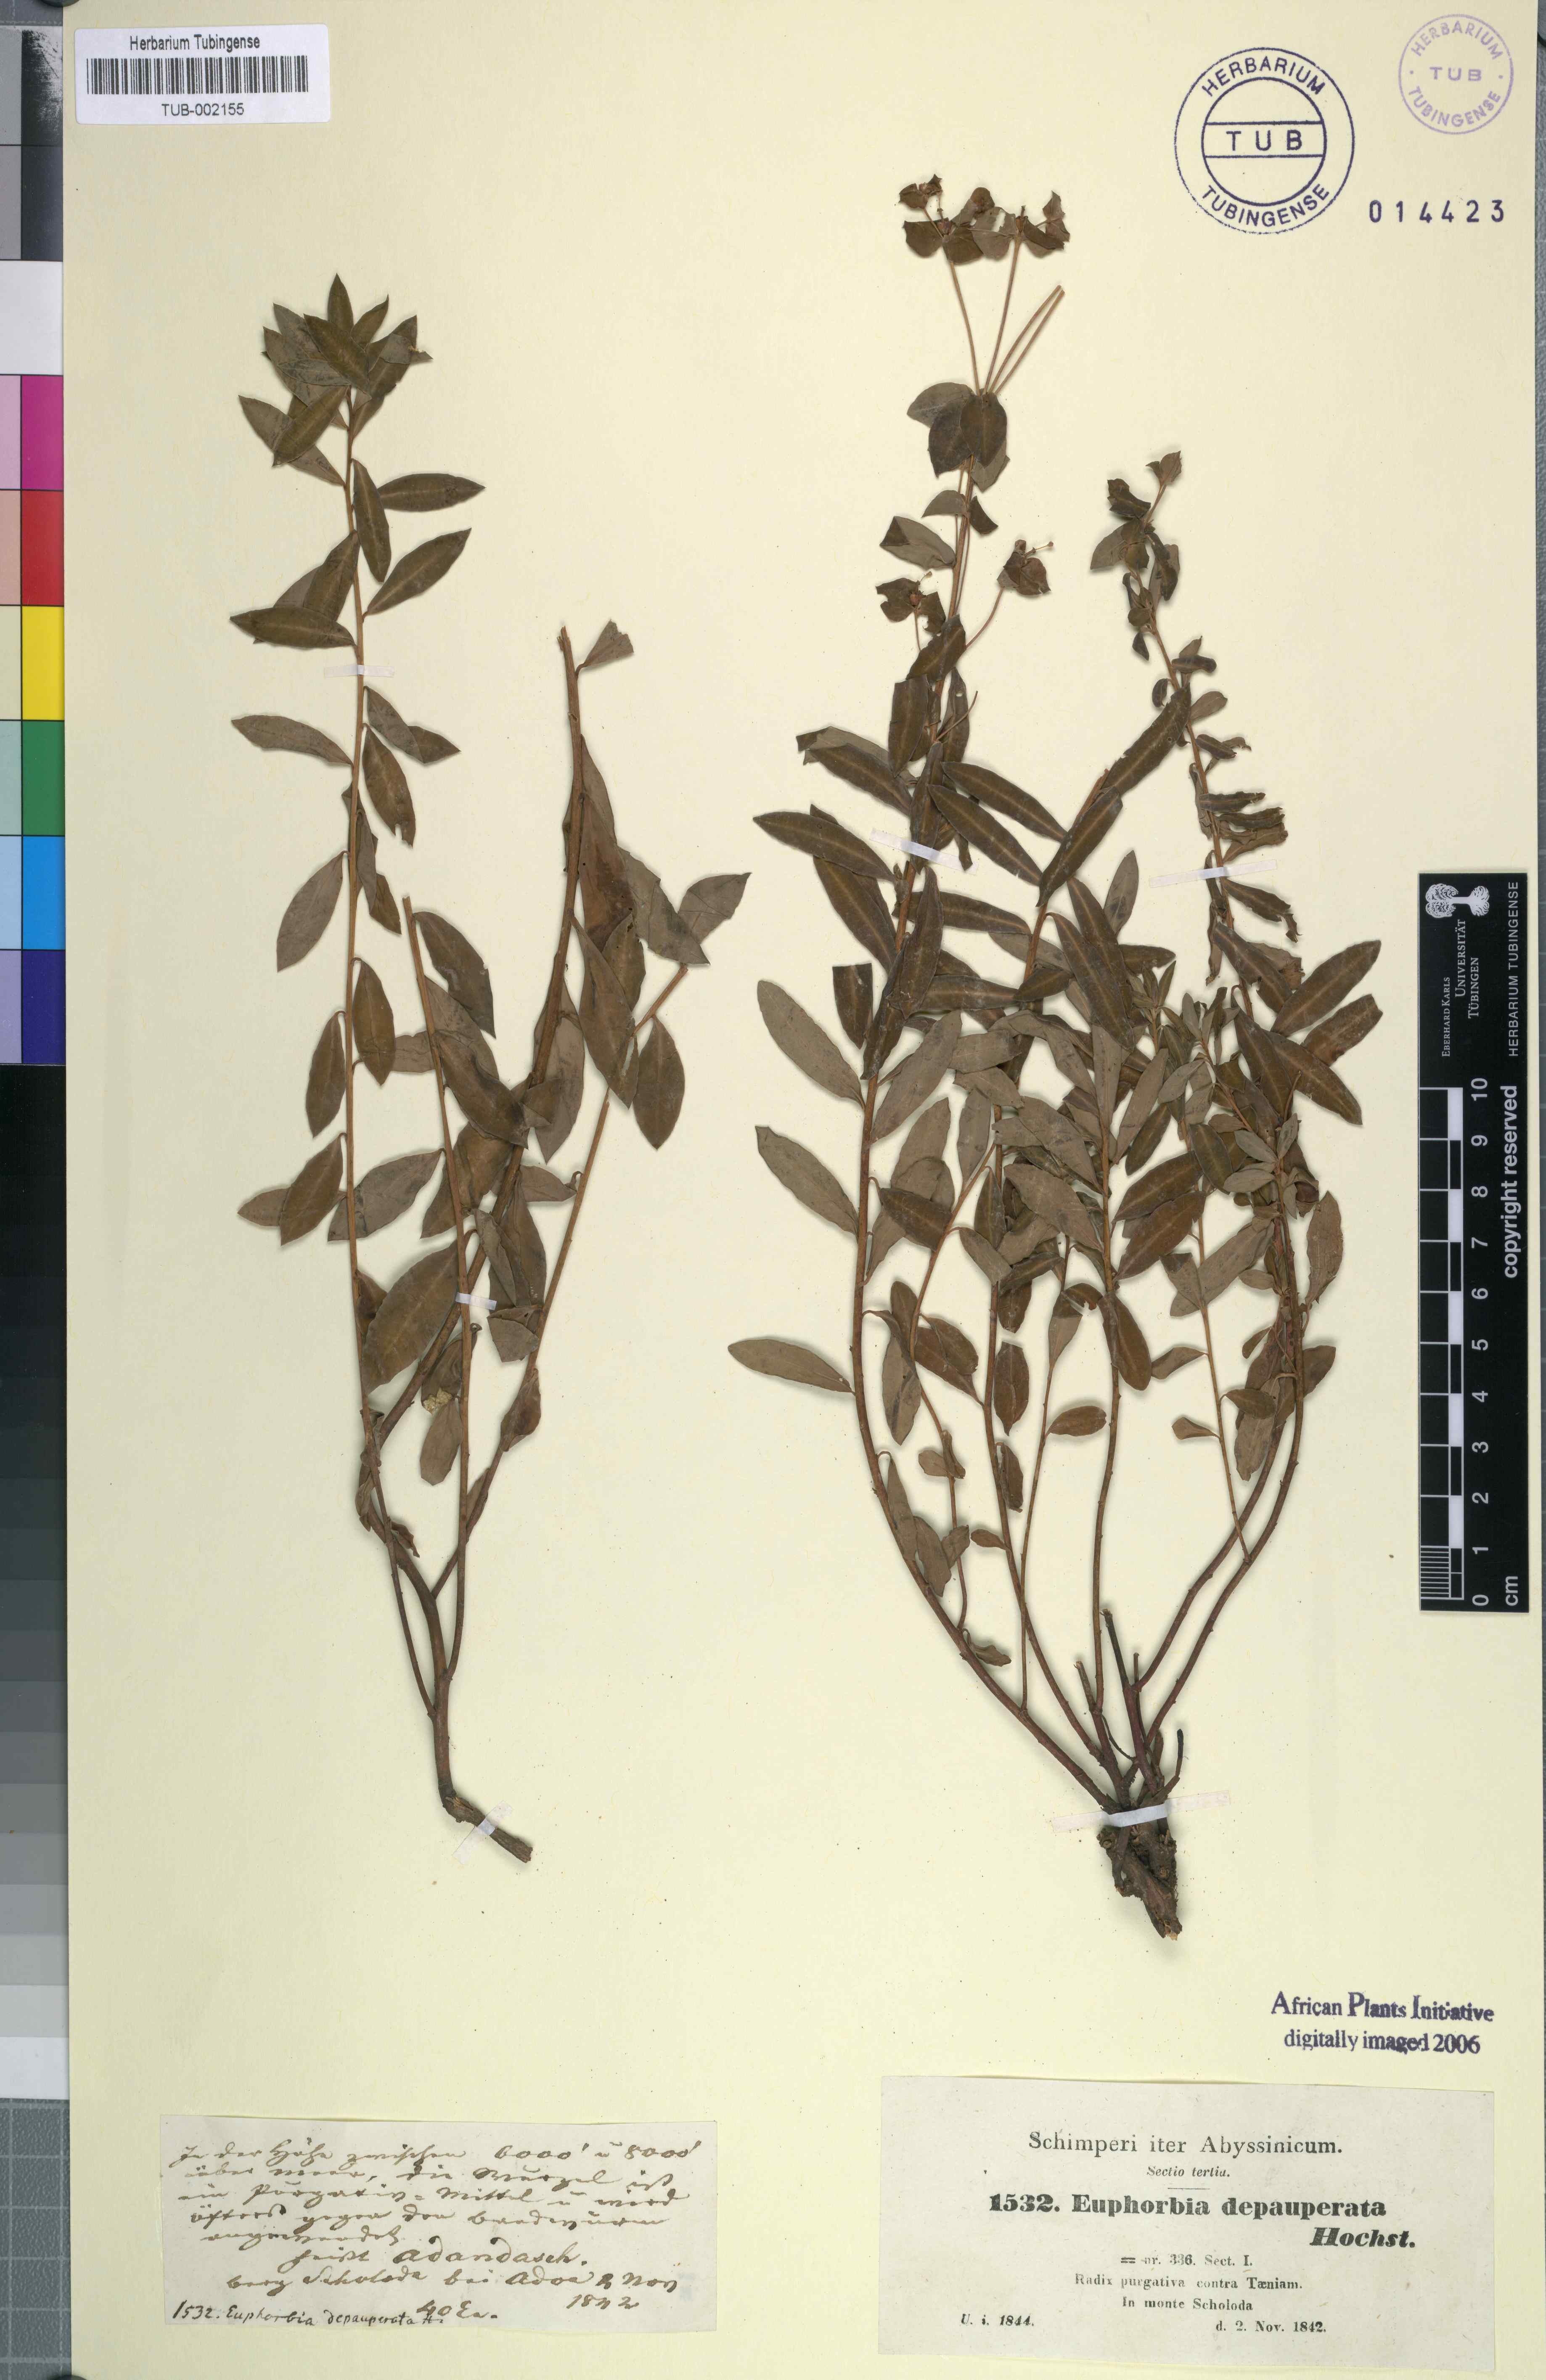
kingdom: Plantae
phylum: Tracheophyta
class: Magnoliopsida
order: Malpighiales
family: Euphorbiaceae
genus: Euphorbia
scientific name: Euphorbia depauperata
